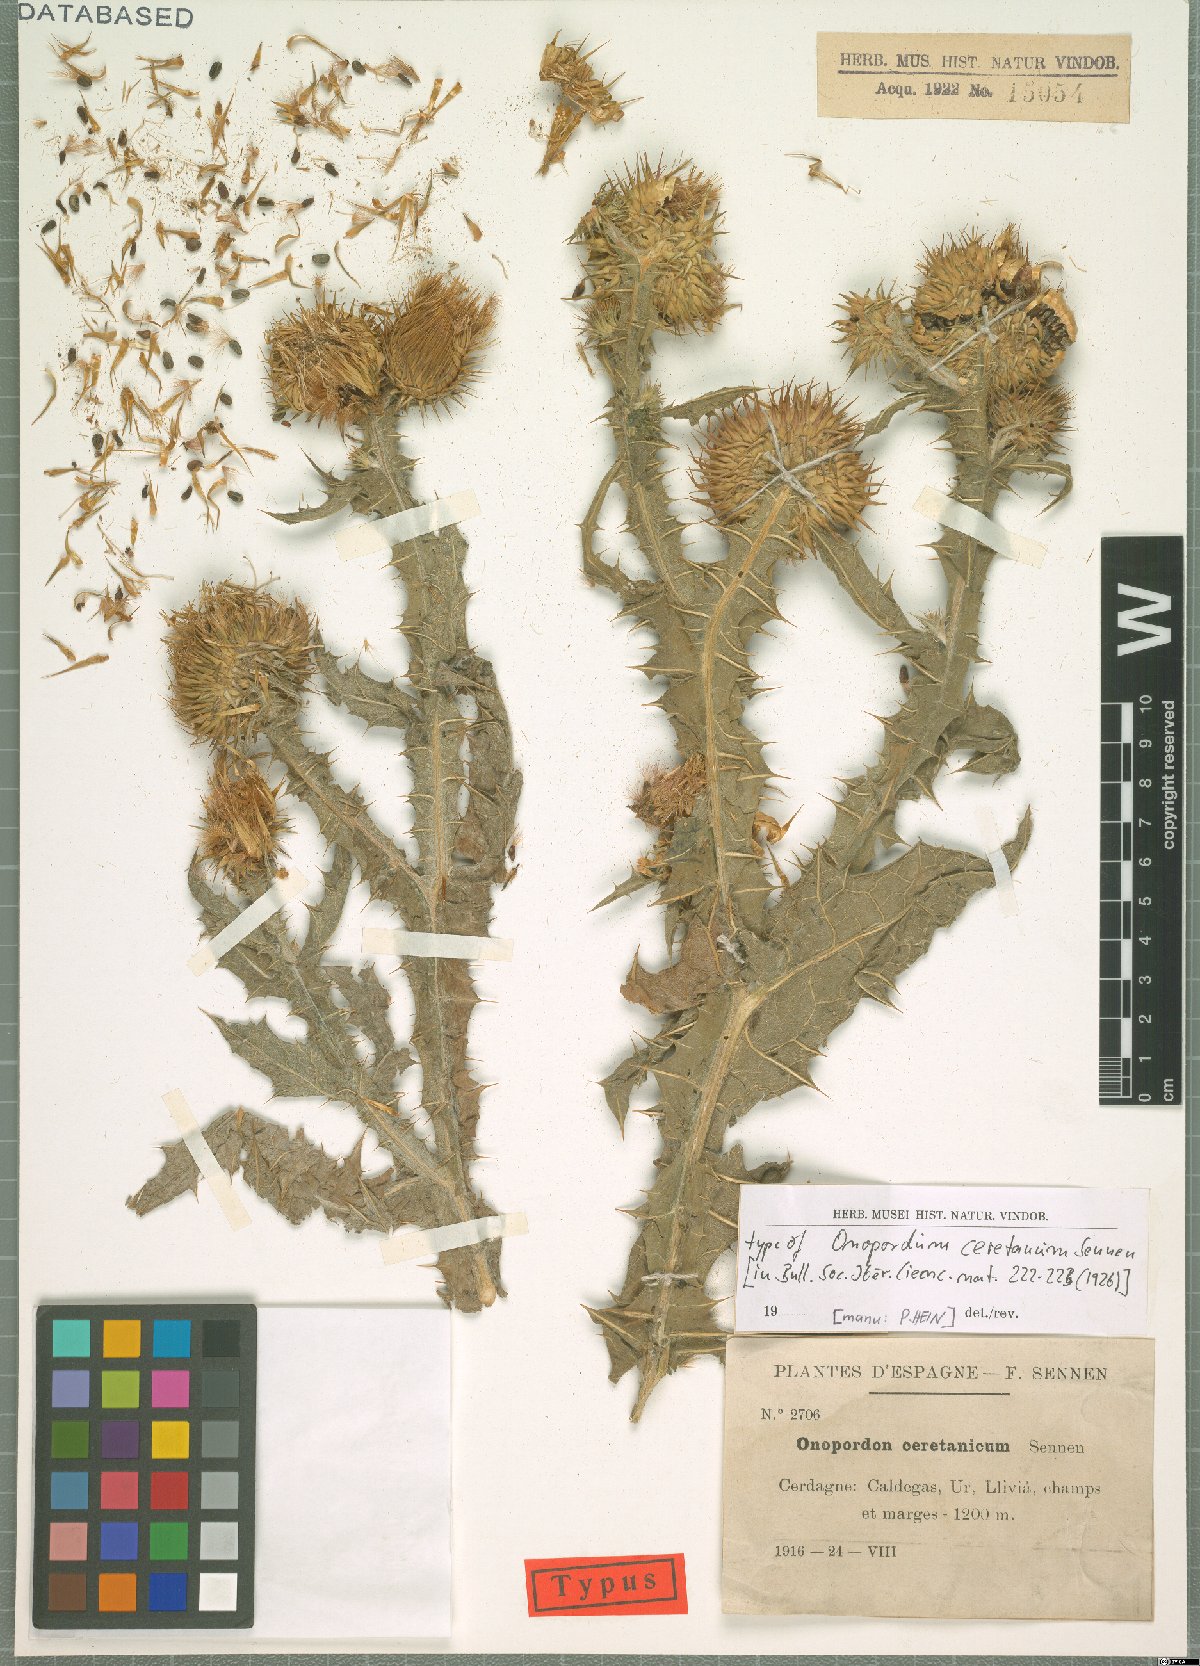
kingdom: Plantae
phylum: Tracheophyta
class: Magnoliopsida
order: Asterales
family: Asteraceae
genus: Onopordum
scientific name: Onopordum acanthium
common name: Scotch thistle
